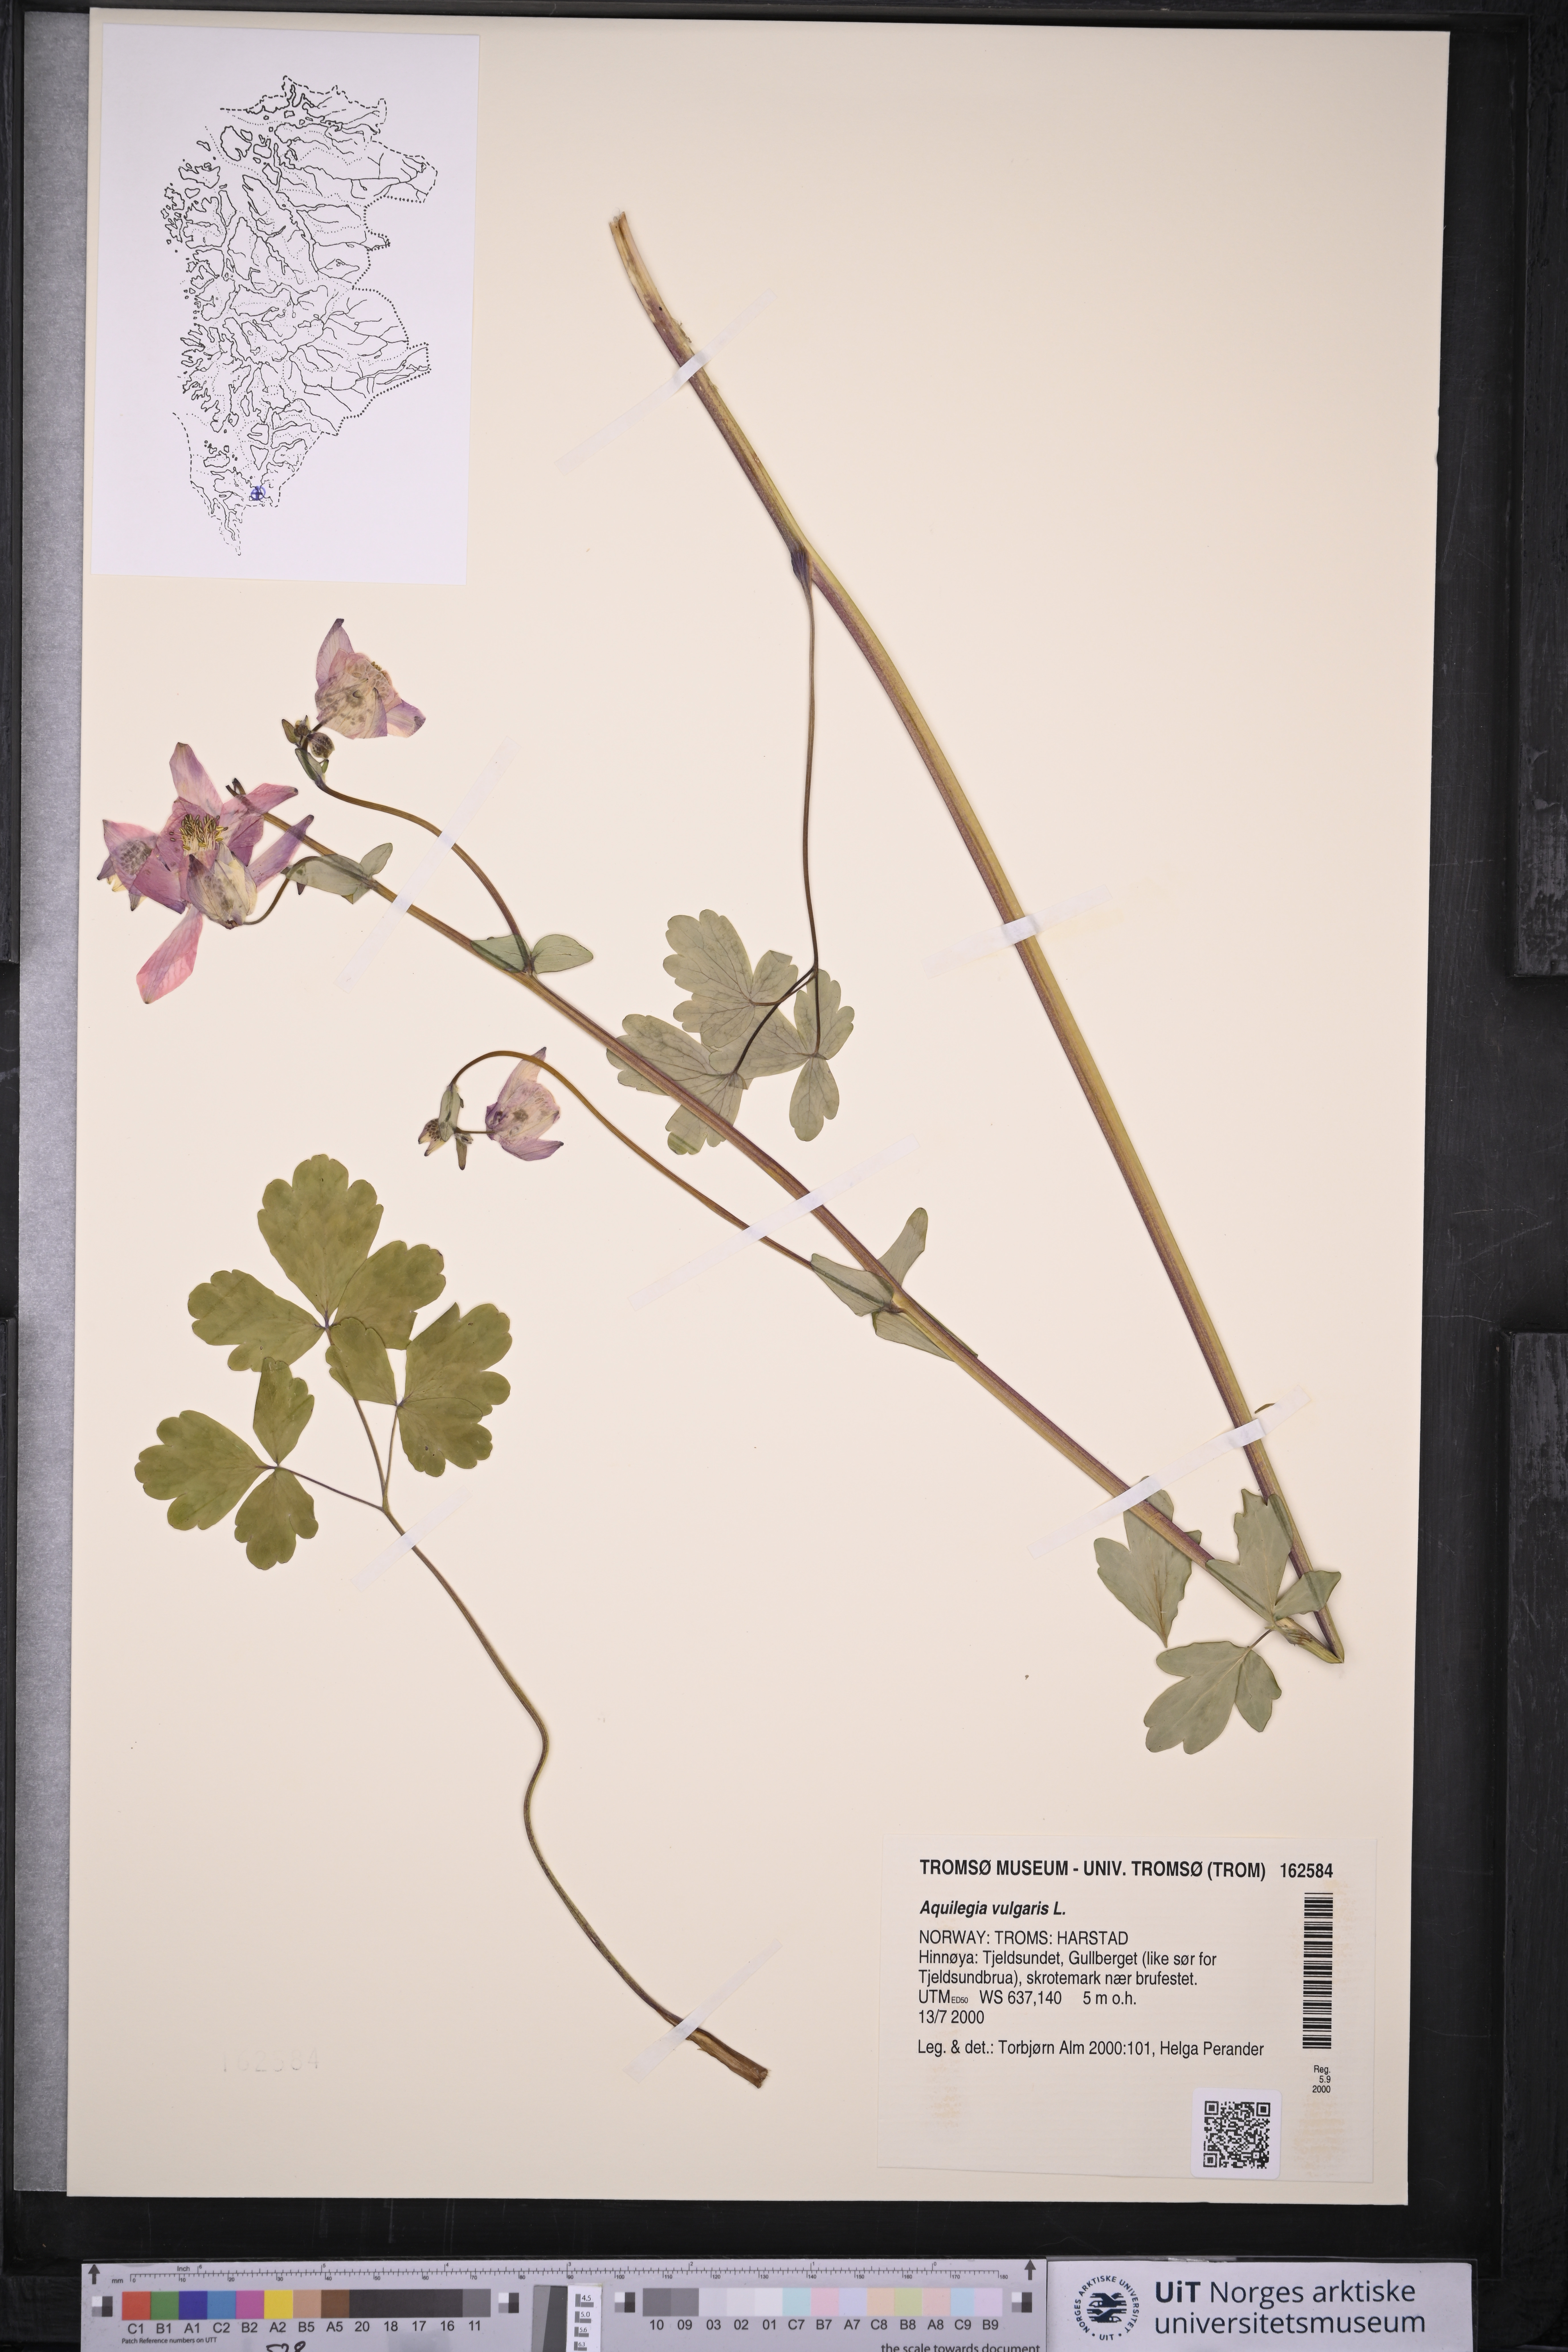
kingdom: Plantae
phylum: Tracheophyta
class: Magnoliopsida
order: Ranunculales
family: Ranunculaceae
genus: Aquilegia
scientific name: Aquilegia vulgaris
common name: Columbine
